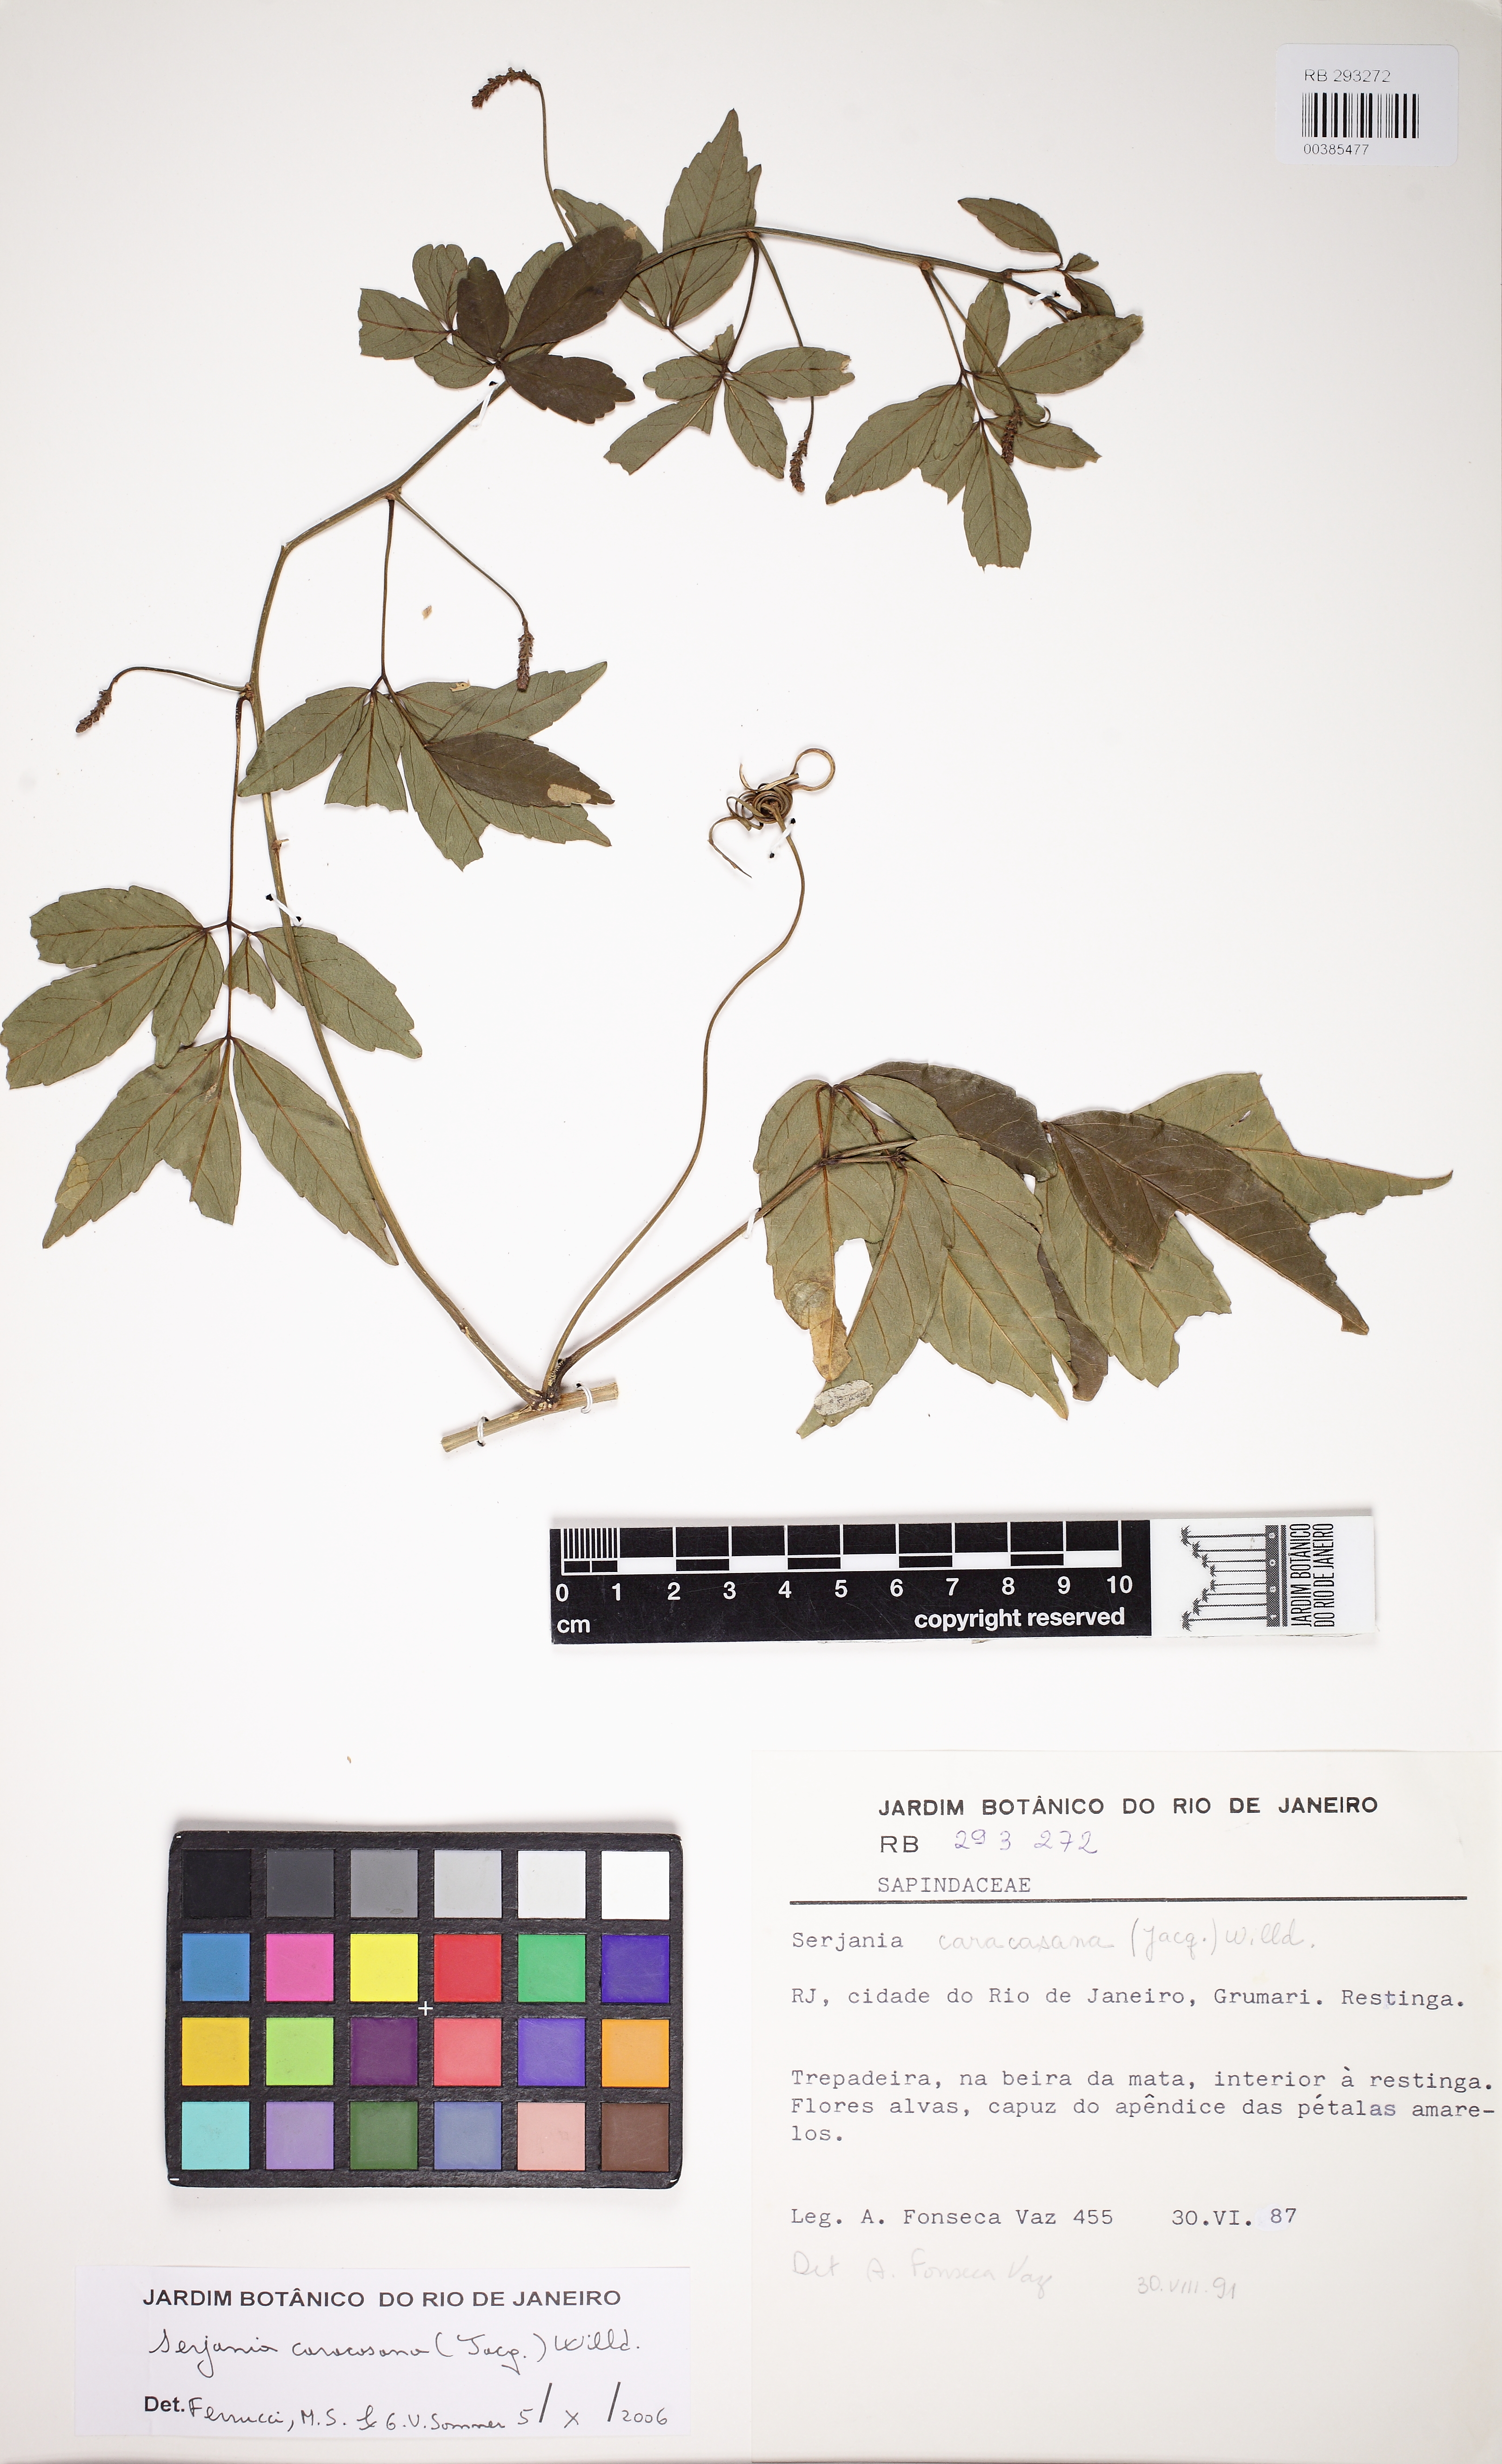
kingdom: Plantae
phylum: Tracheophyta
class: Magnoliopsida
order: Sapindales
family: Sapindaceae
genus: Serjania
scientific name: Serjania caracasana
